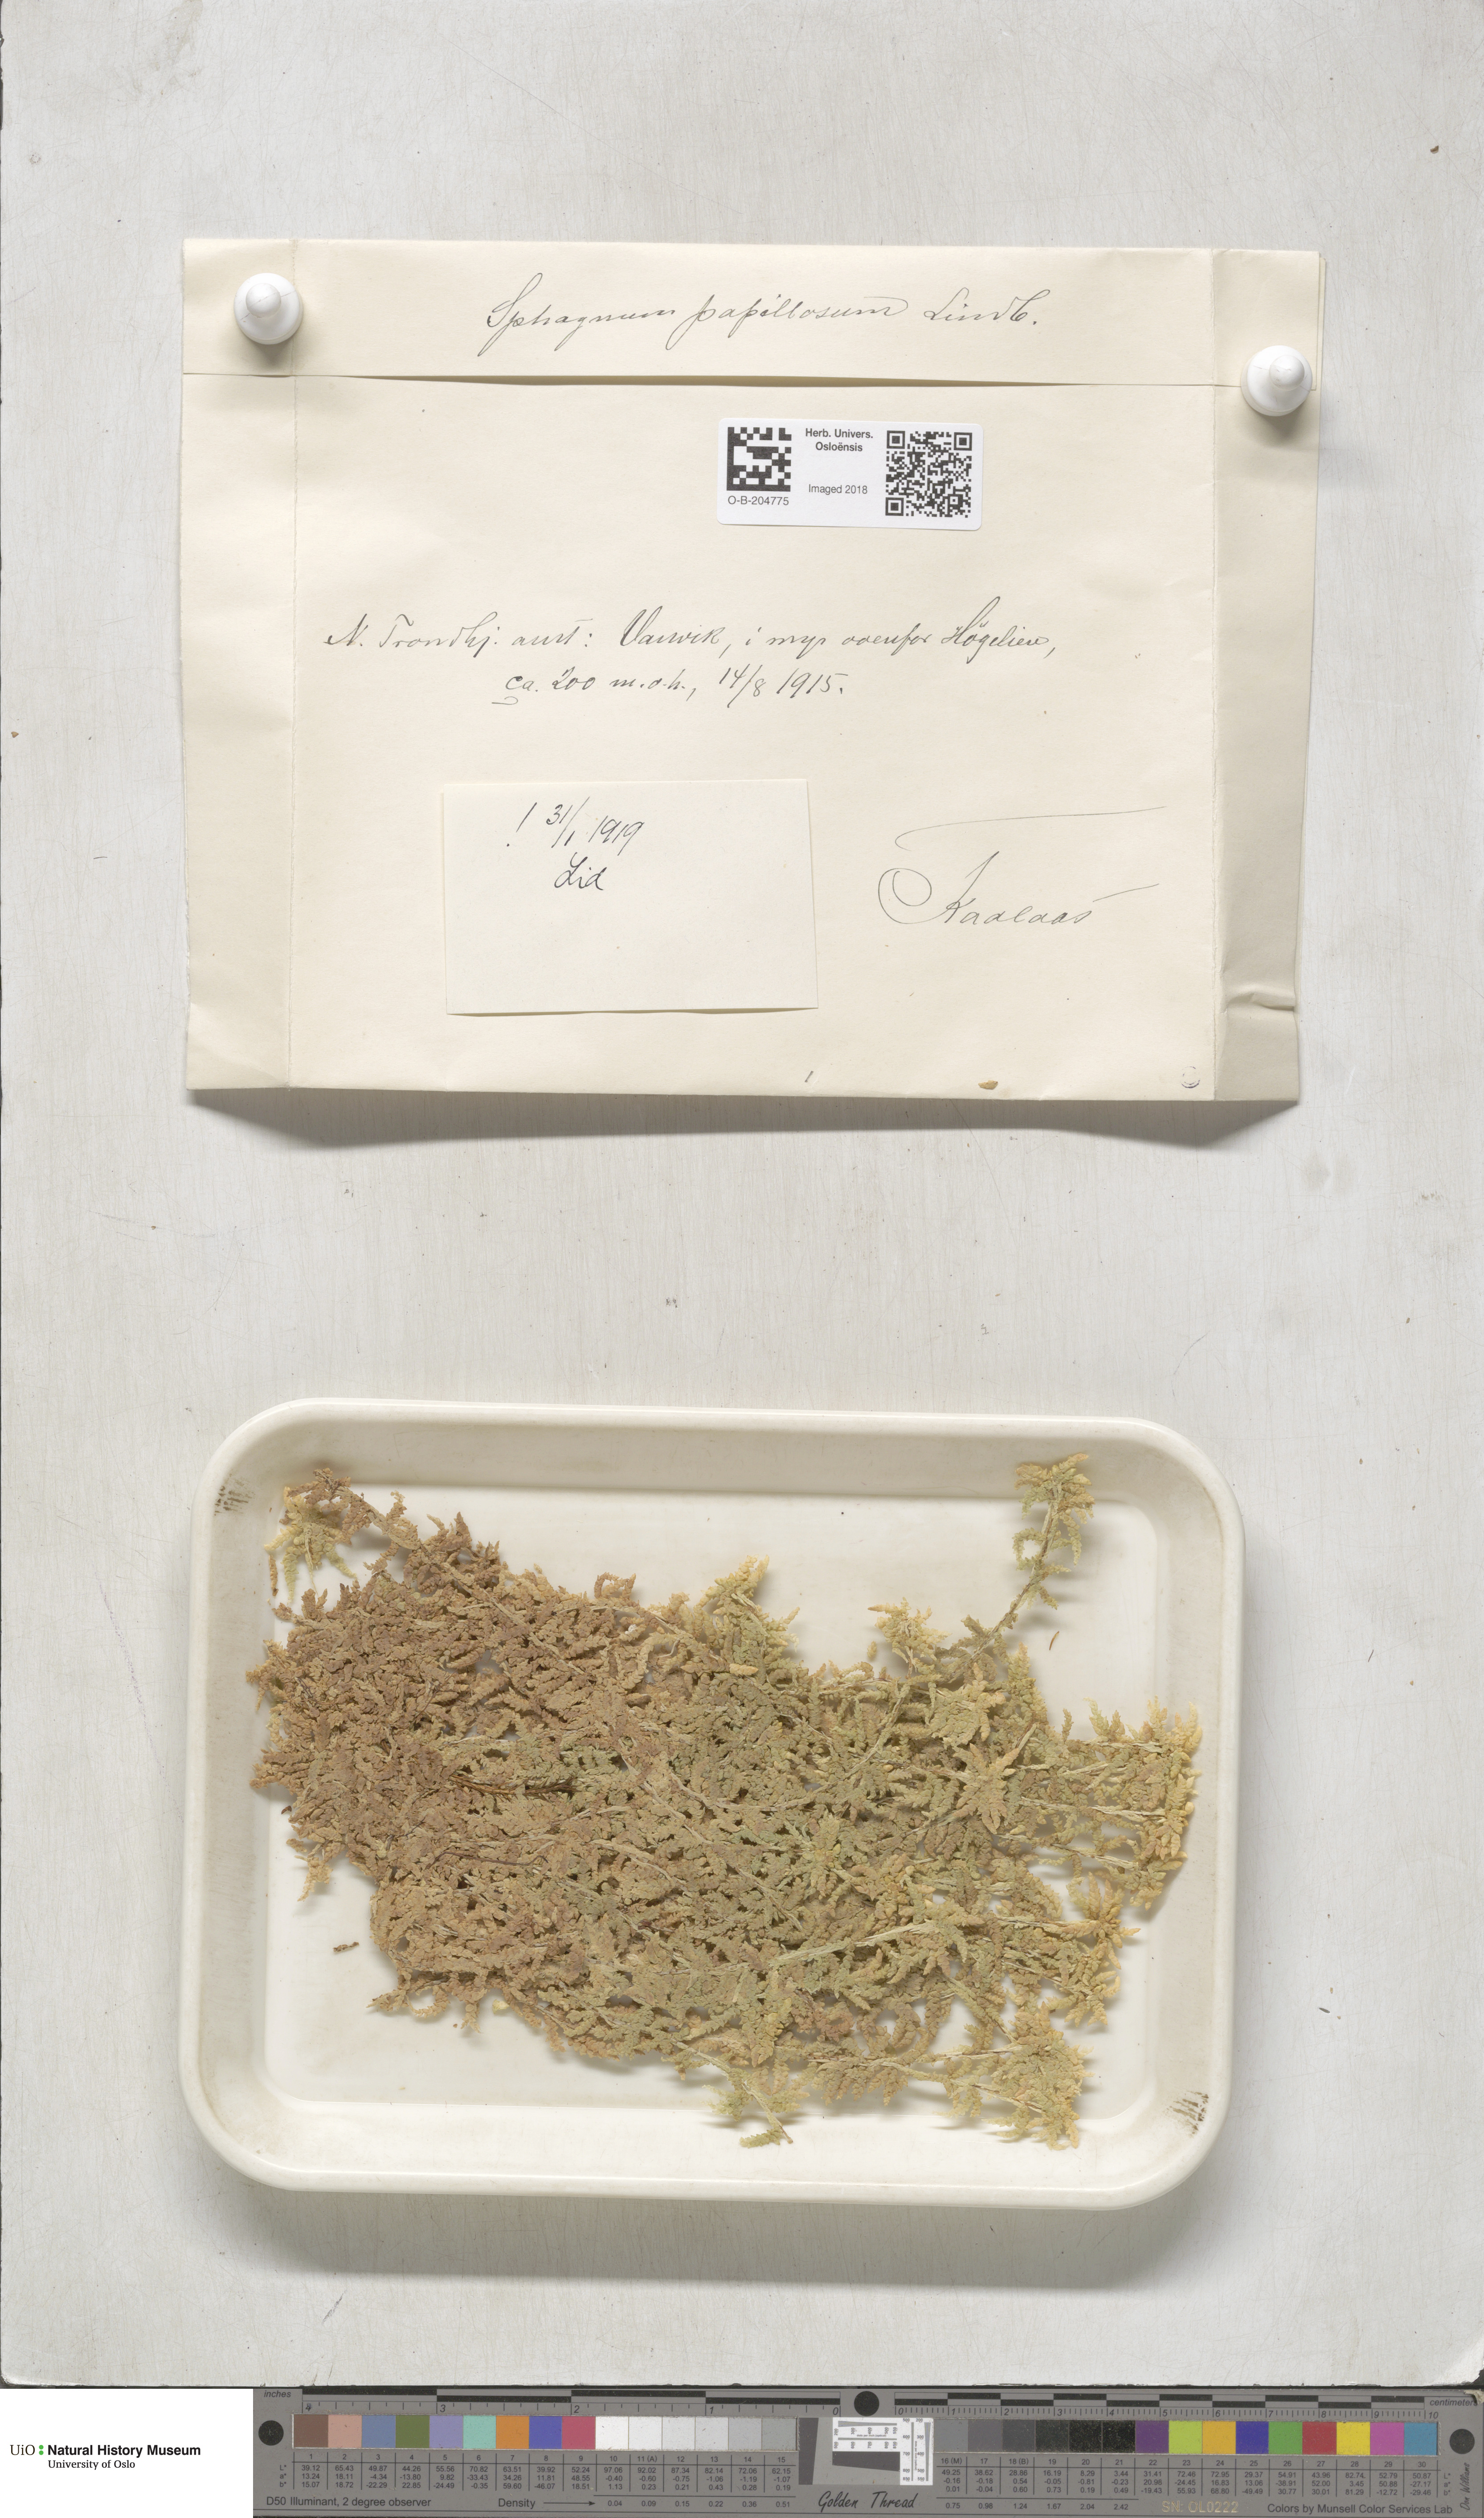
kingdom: Plantae
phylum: Bryophyta
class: Sphagnopsida
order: Sphagnales
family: Sphagnaceae
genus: Sphagnum
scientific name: Sphagnum papillosum
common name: Papillose peat moss
